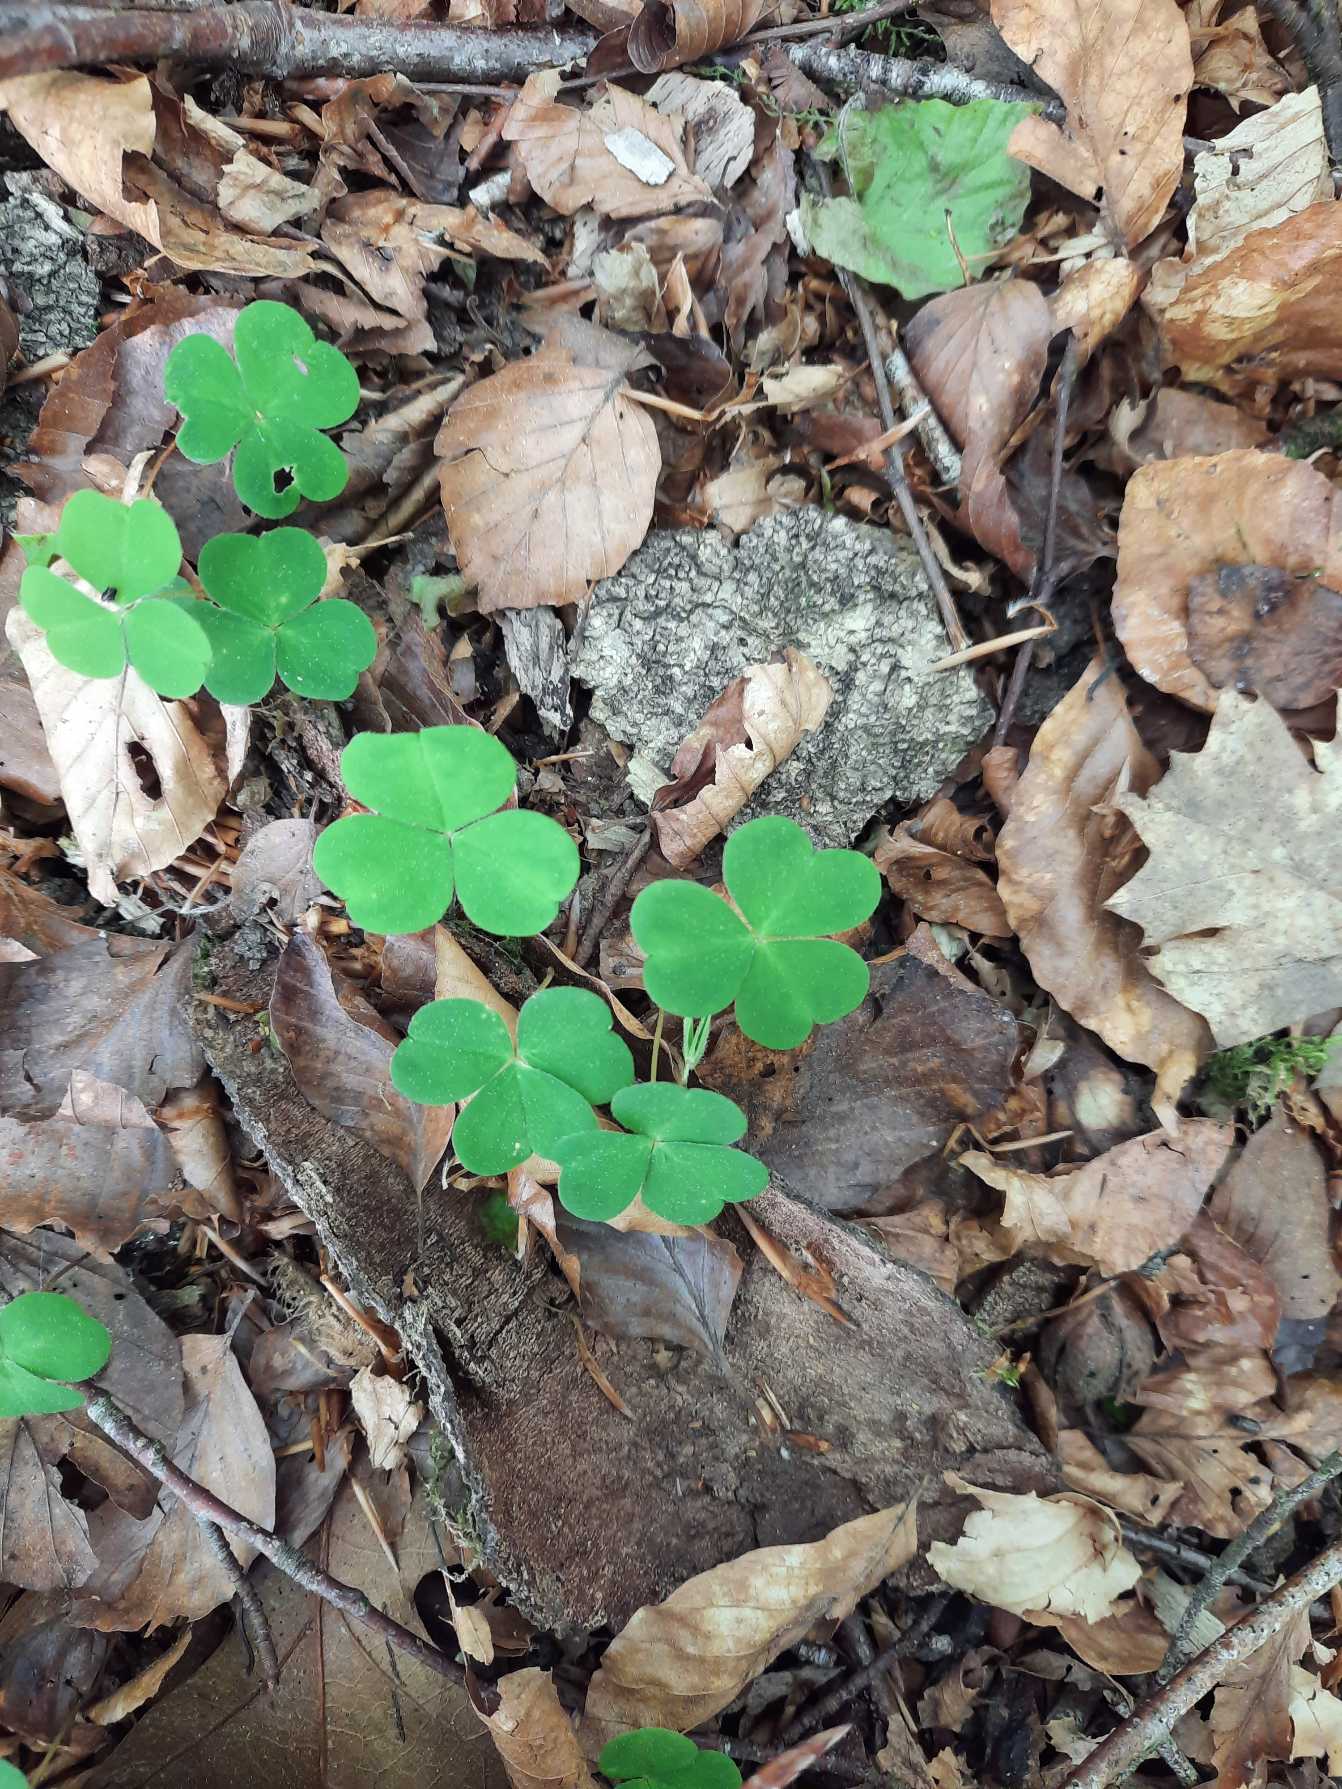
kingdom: Plantae
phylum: Tracheophyta
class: Magnoliopsida
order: Oxalidales
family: Oxalidaceae
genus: Oxalis
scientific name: Oxalis acetosella
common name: Skovsyre
